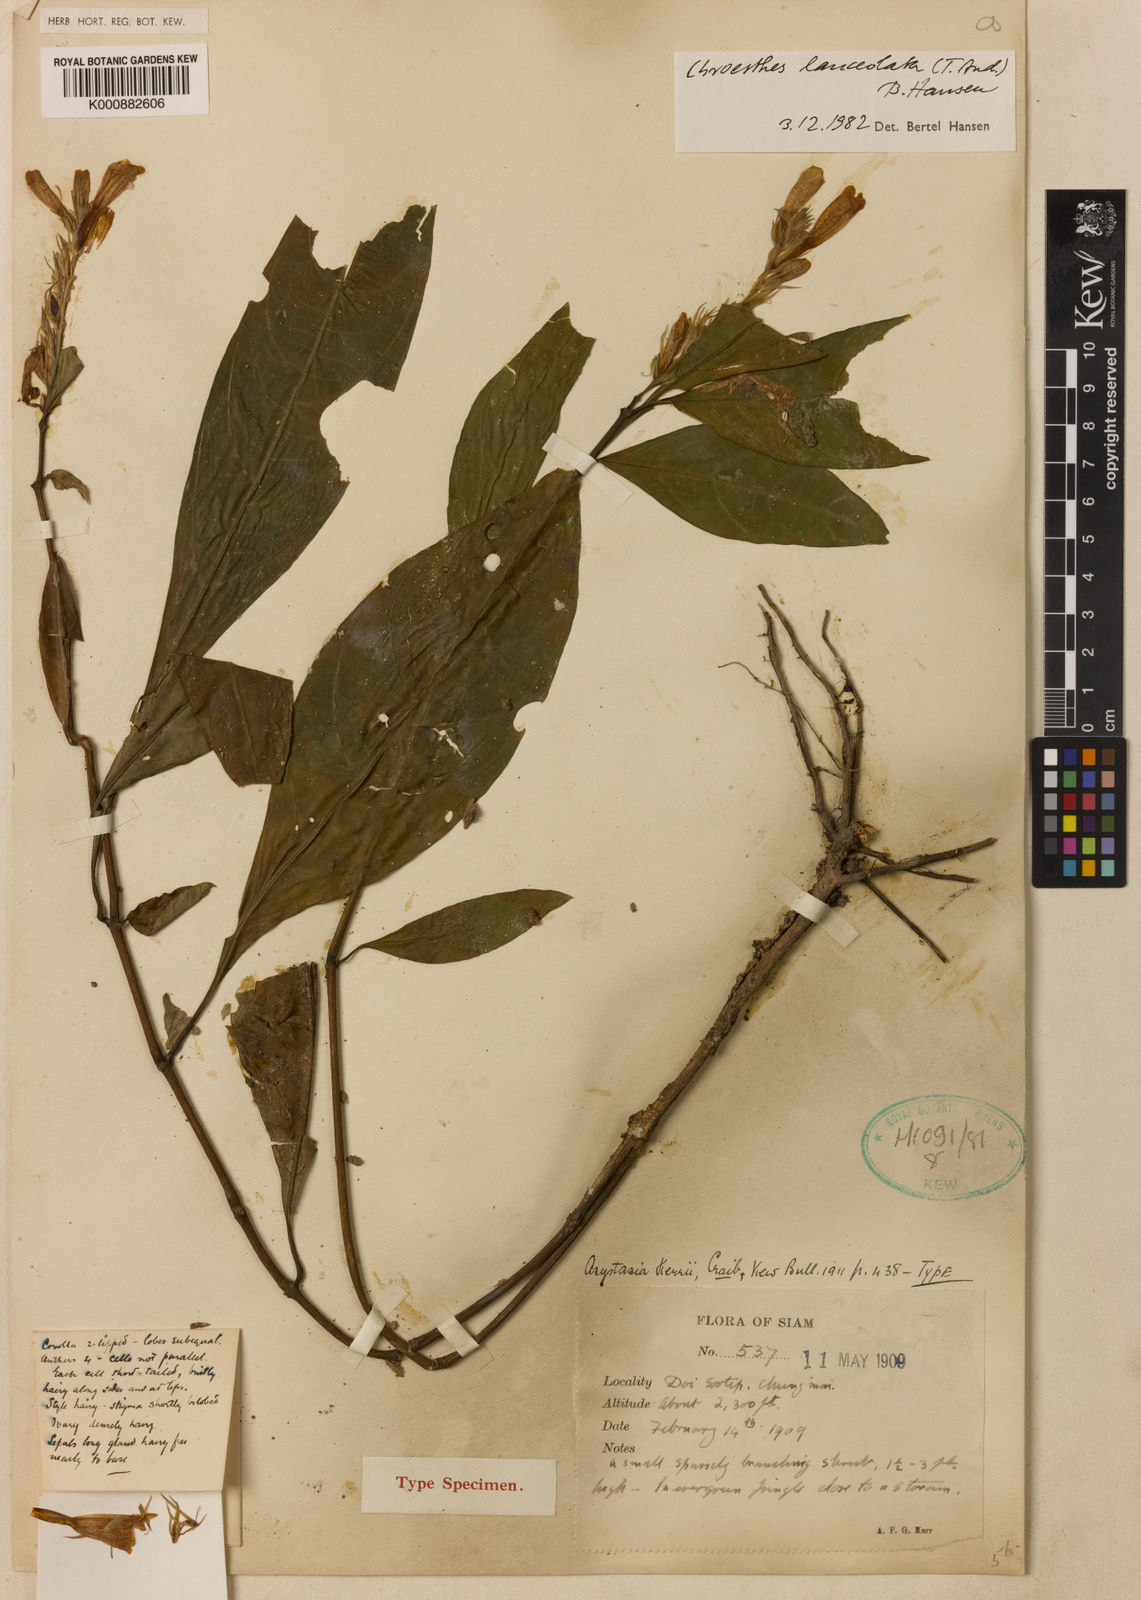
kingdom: Plantae
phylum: Tracheophyta
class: Magnoliopsida
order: Lamiales
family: Acanthaceae
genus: Chroesthes
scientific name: Chroesthes lanceolata
